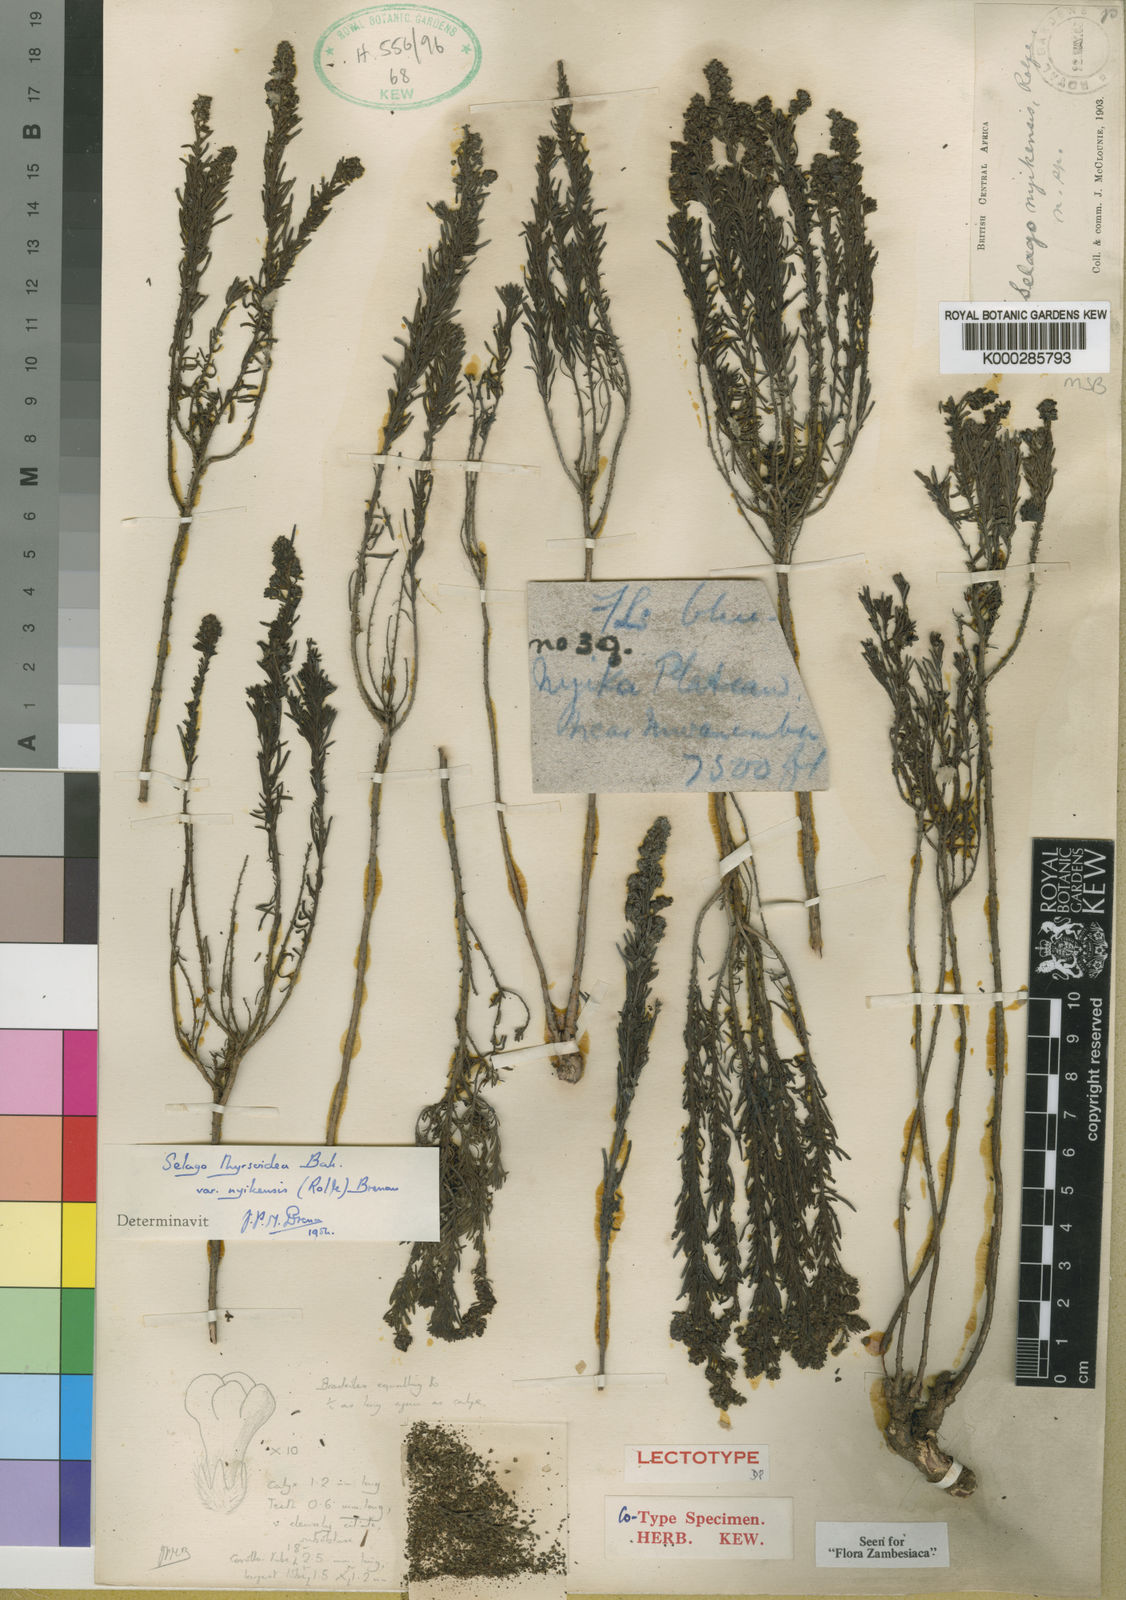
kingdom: Plantae
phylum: Tracheophyta
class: Magnoliopsida
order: Lamiales
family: Scrophulariaceae
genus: Selago
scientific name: Selago thyrsoidea
